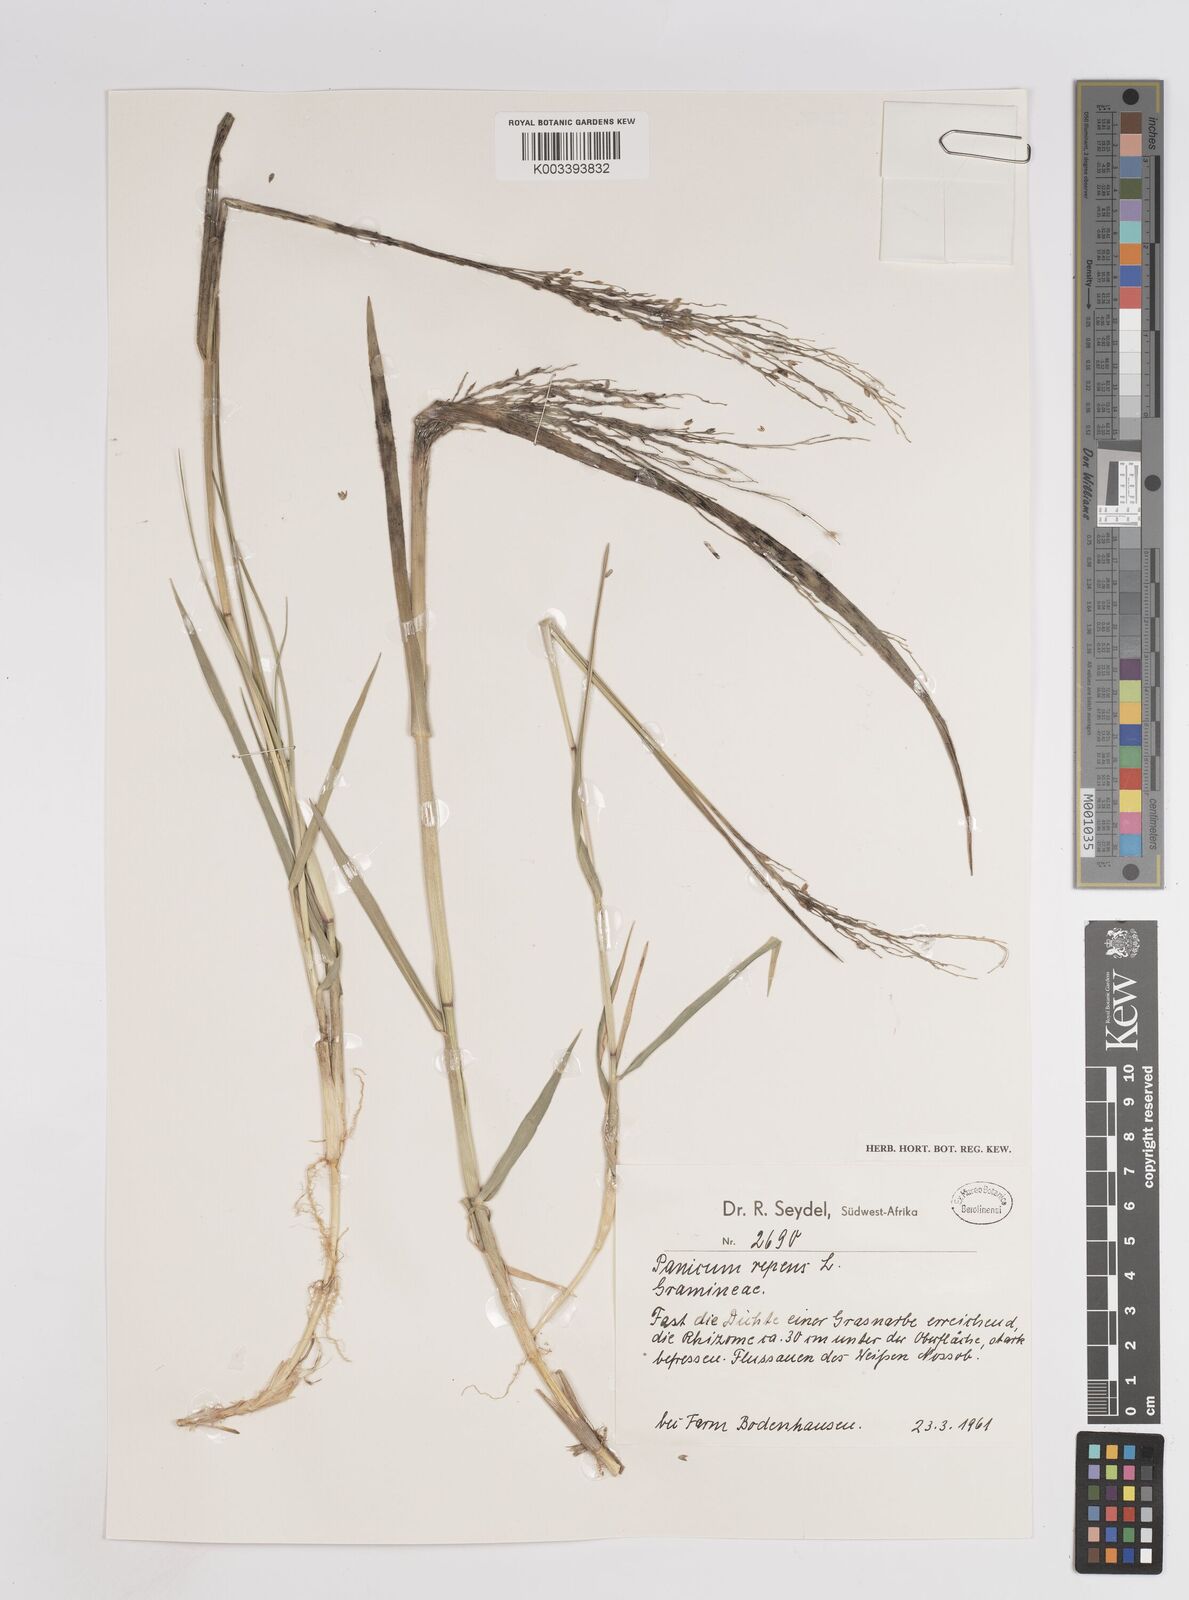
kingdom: Plantae
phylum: Tracheophyta
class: Liliopsida
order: Poales
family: Poaceae
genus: Panicum
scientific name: Panicum repens
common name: Torpedo grass
